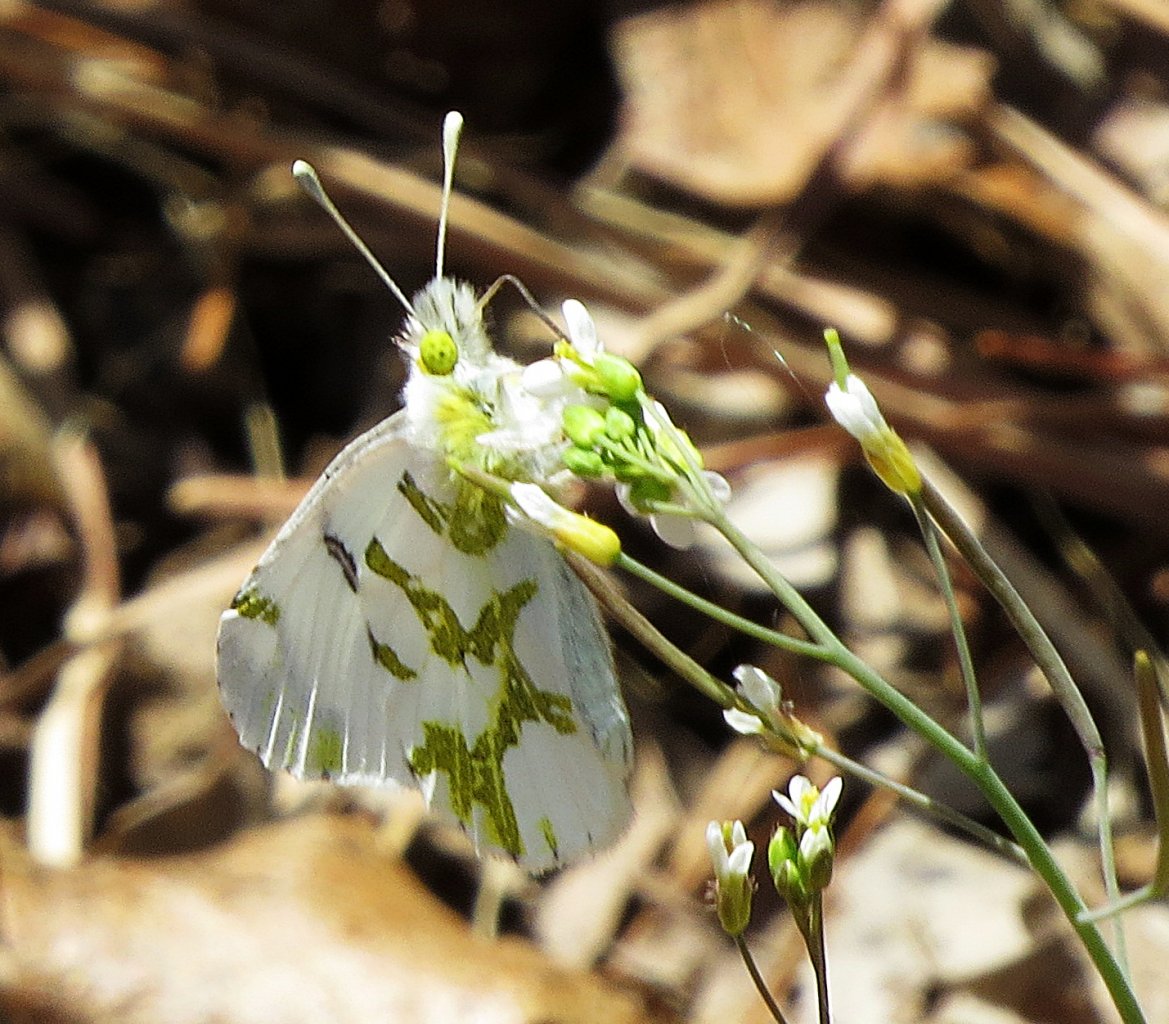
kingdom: Animalia
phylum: Arthropoda
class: Insecta
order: Lepidoptera
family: Pieridae
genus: Euchloe
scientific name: Euchloe olympia
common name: Olympia Marble
